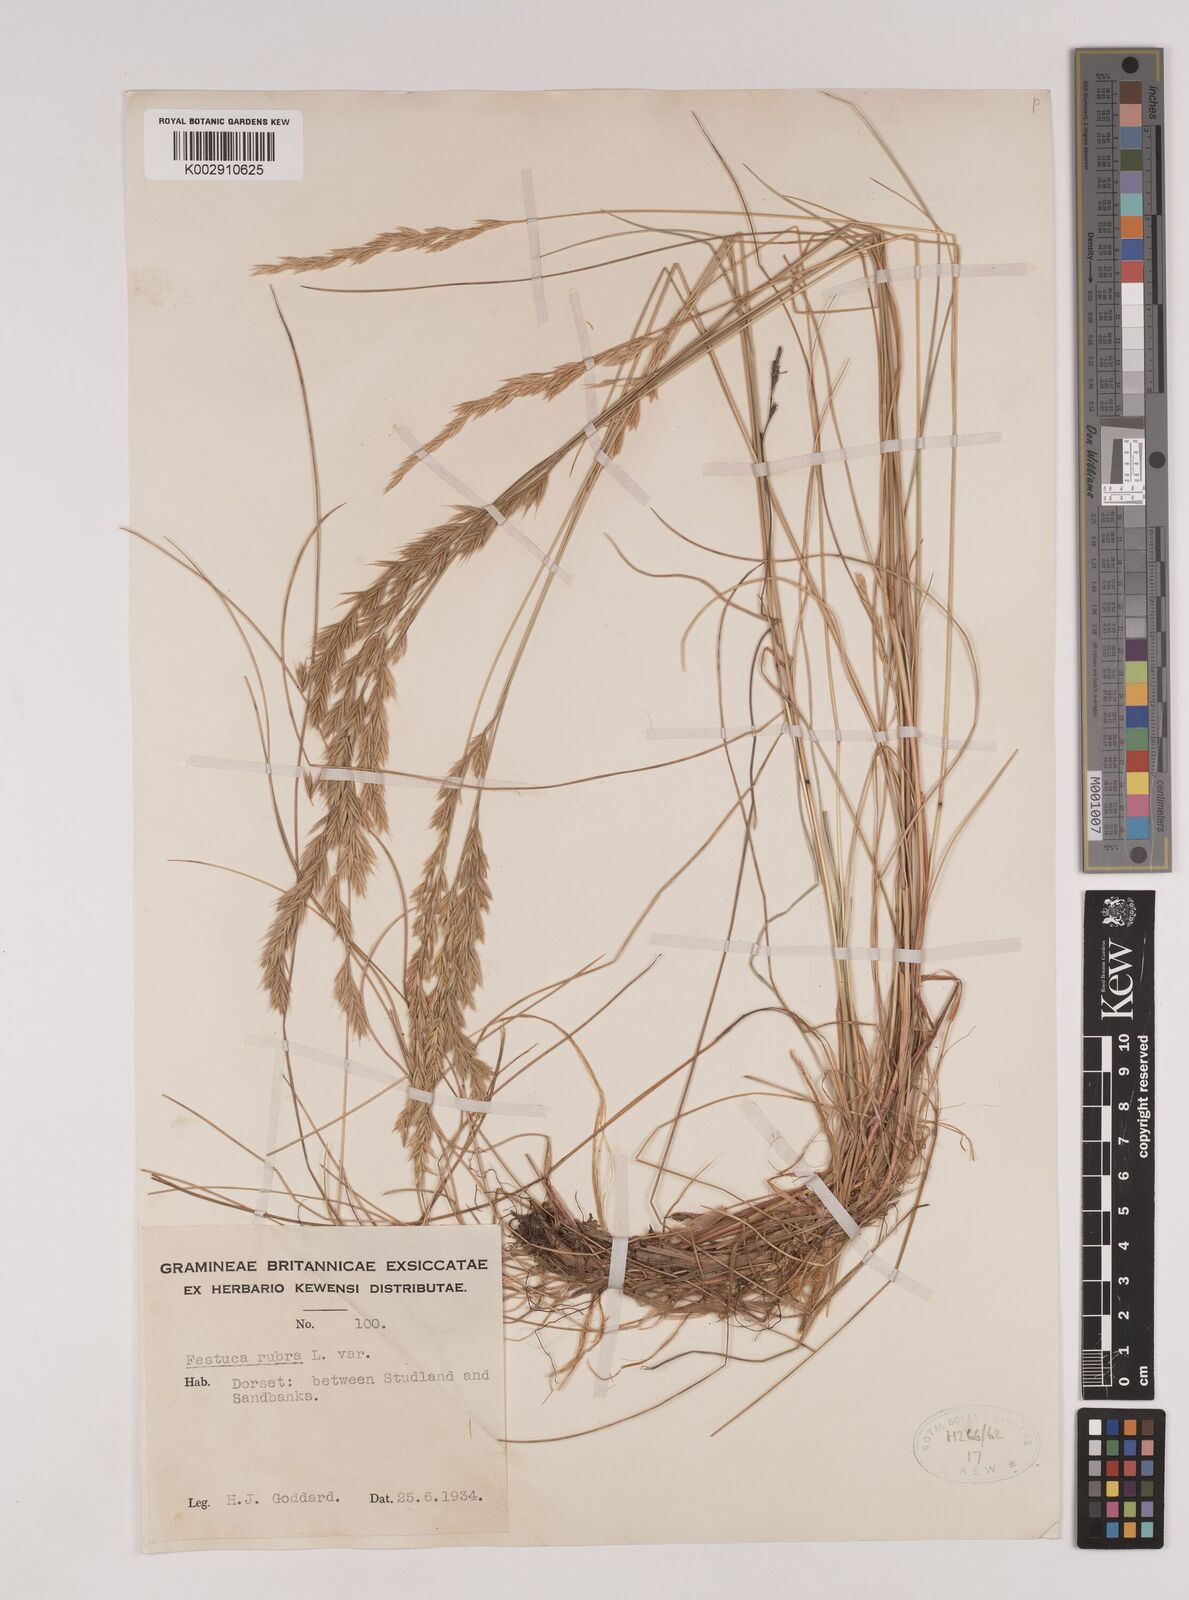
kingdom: Plantae
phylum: Tracheophyta
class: Liliopsida
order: Poales
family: Poaceae
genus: Festuca
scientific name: Festuca rubra
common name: Red fescue
